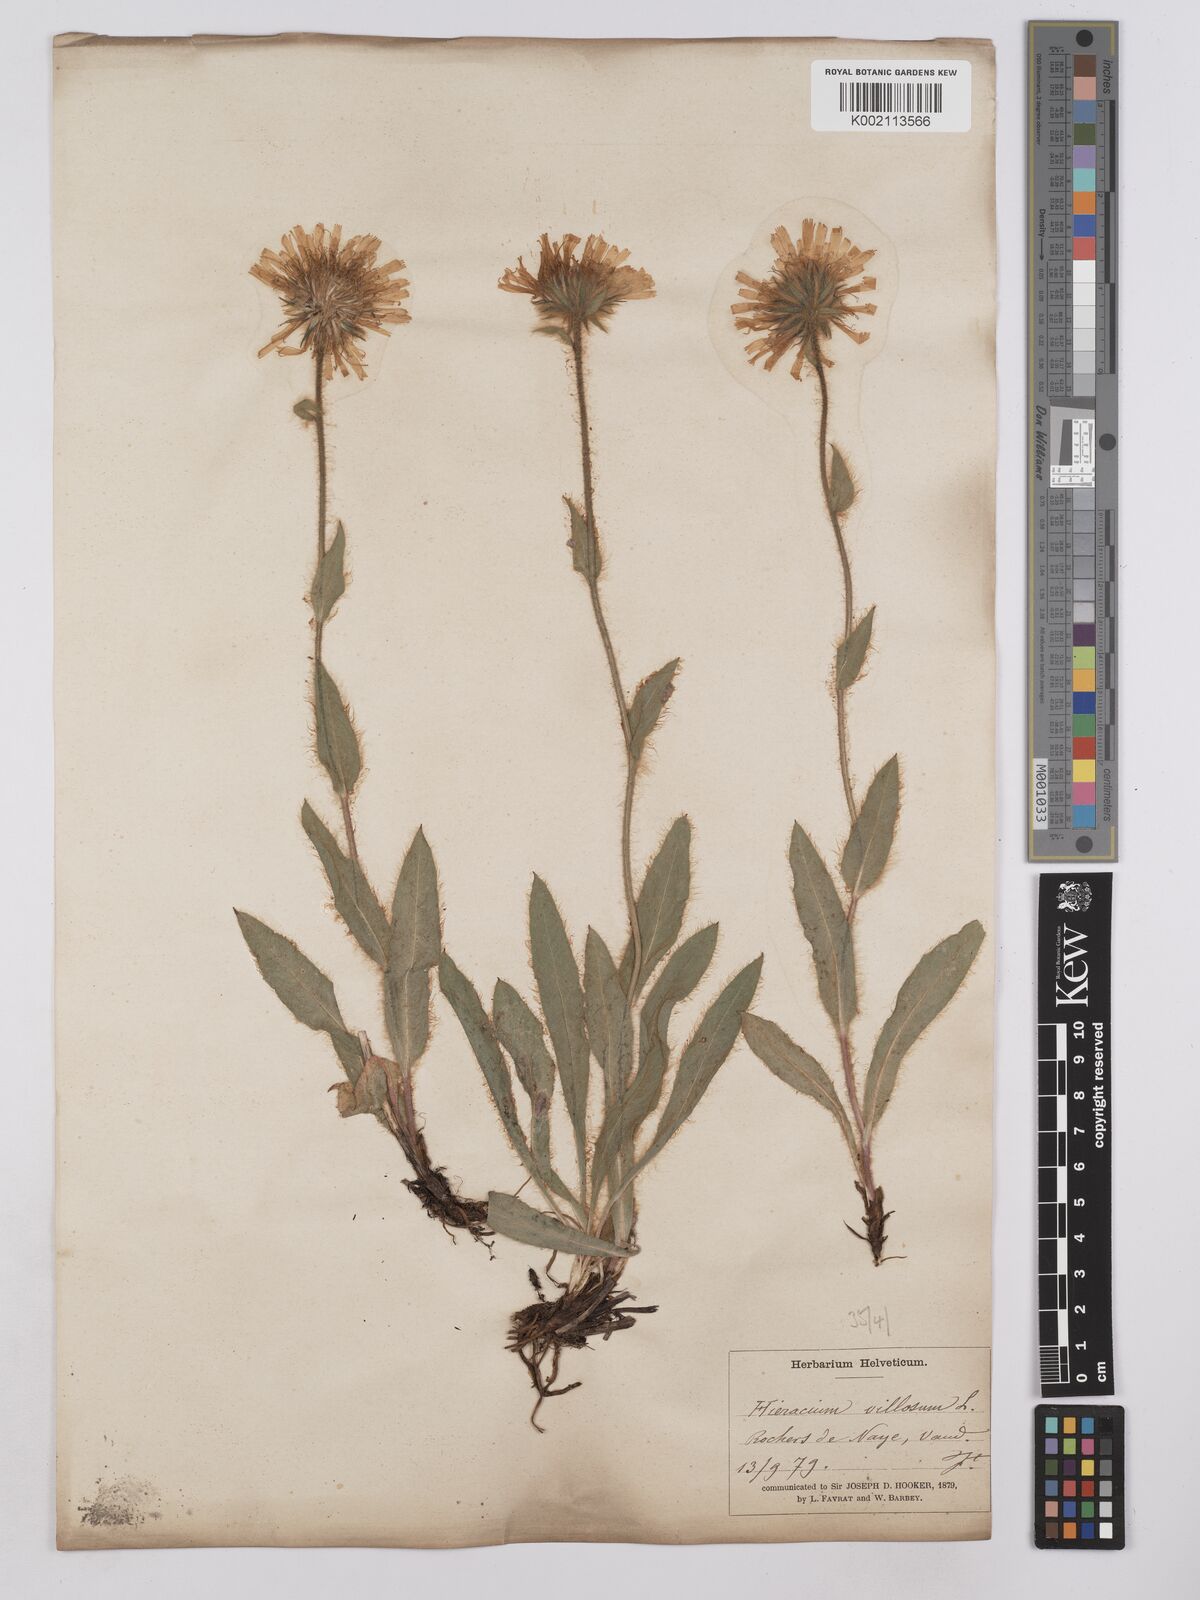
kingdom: Plantae
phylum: Tracheophyta
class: Magnoliopsida
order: Asterales
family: Asteraceae
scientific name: Asteraceae
